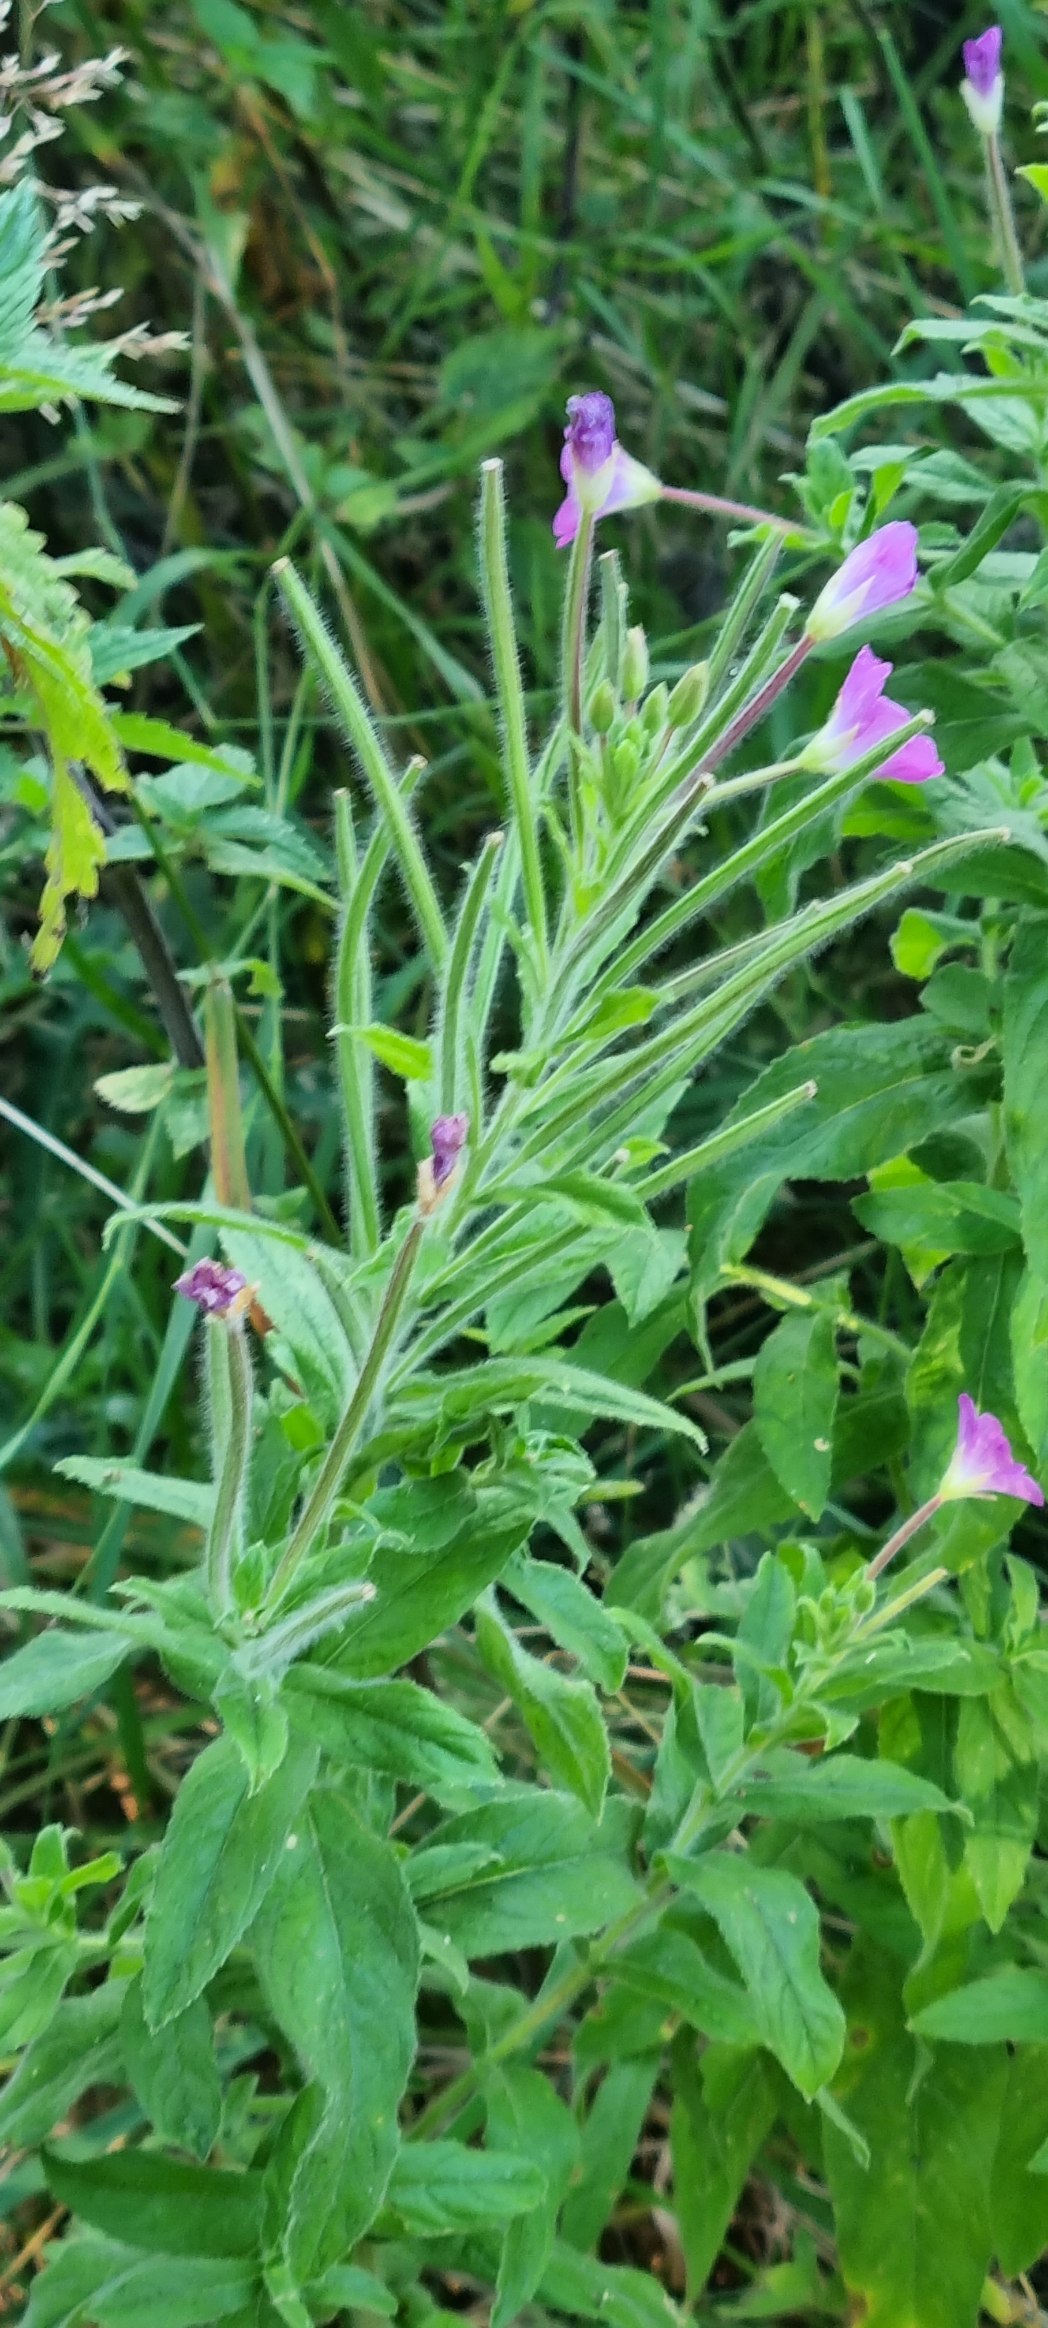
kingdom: Plantae
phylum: Tracheophyta
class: Magnoliopsida
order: Myrtales
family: Onagraceae
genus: Epilobium
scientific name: Epilobium hirsutum
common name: Lådden dueurt
